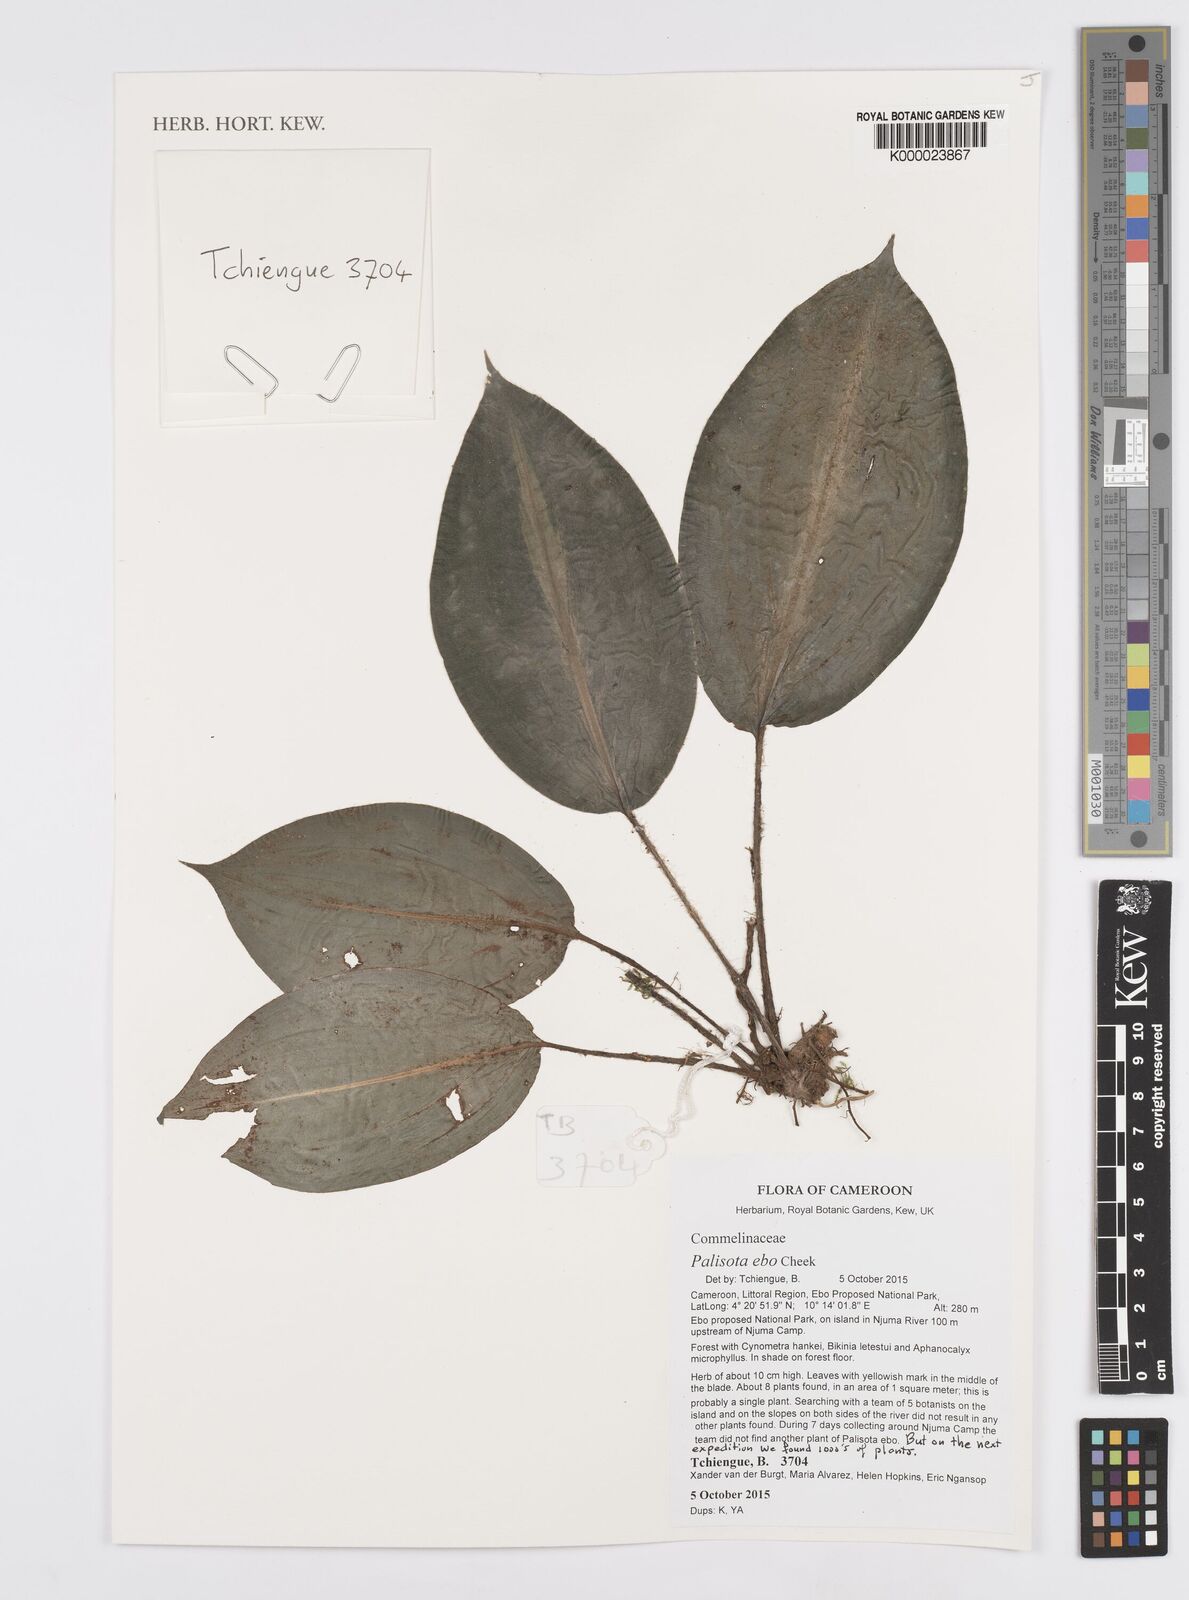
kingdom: Plantae
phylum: Tracheophyta
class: Magnoliopsida
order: Fabales
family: Fabaceae
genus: Tessmannia
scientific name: Tessmannia
